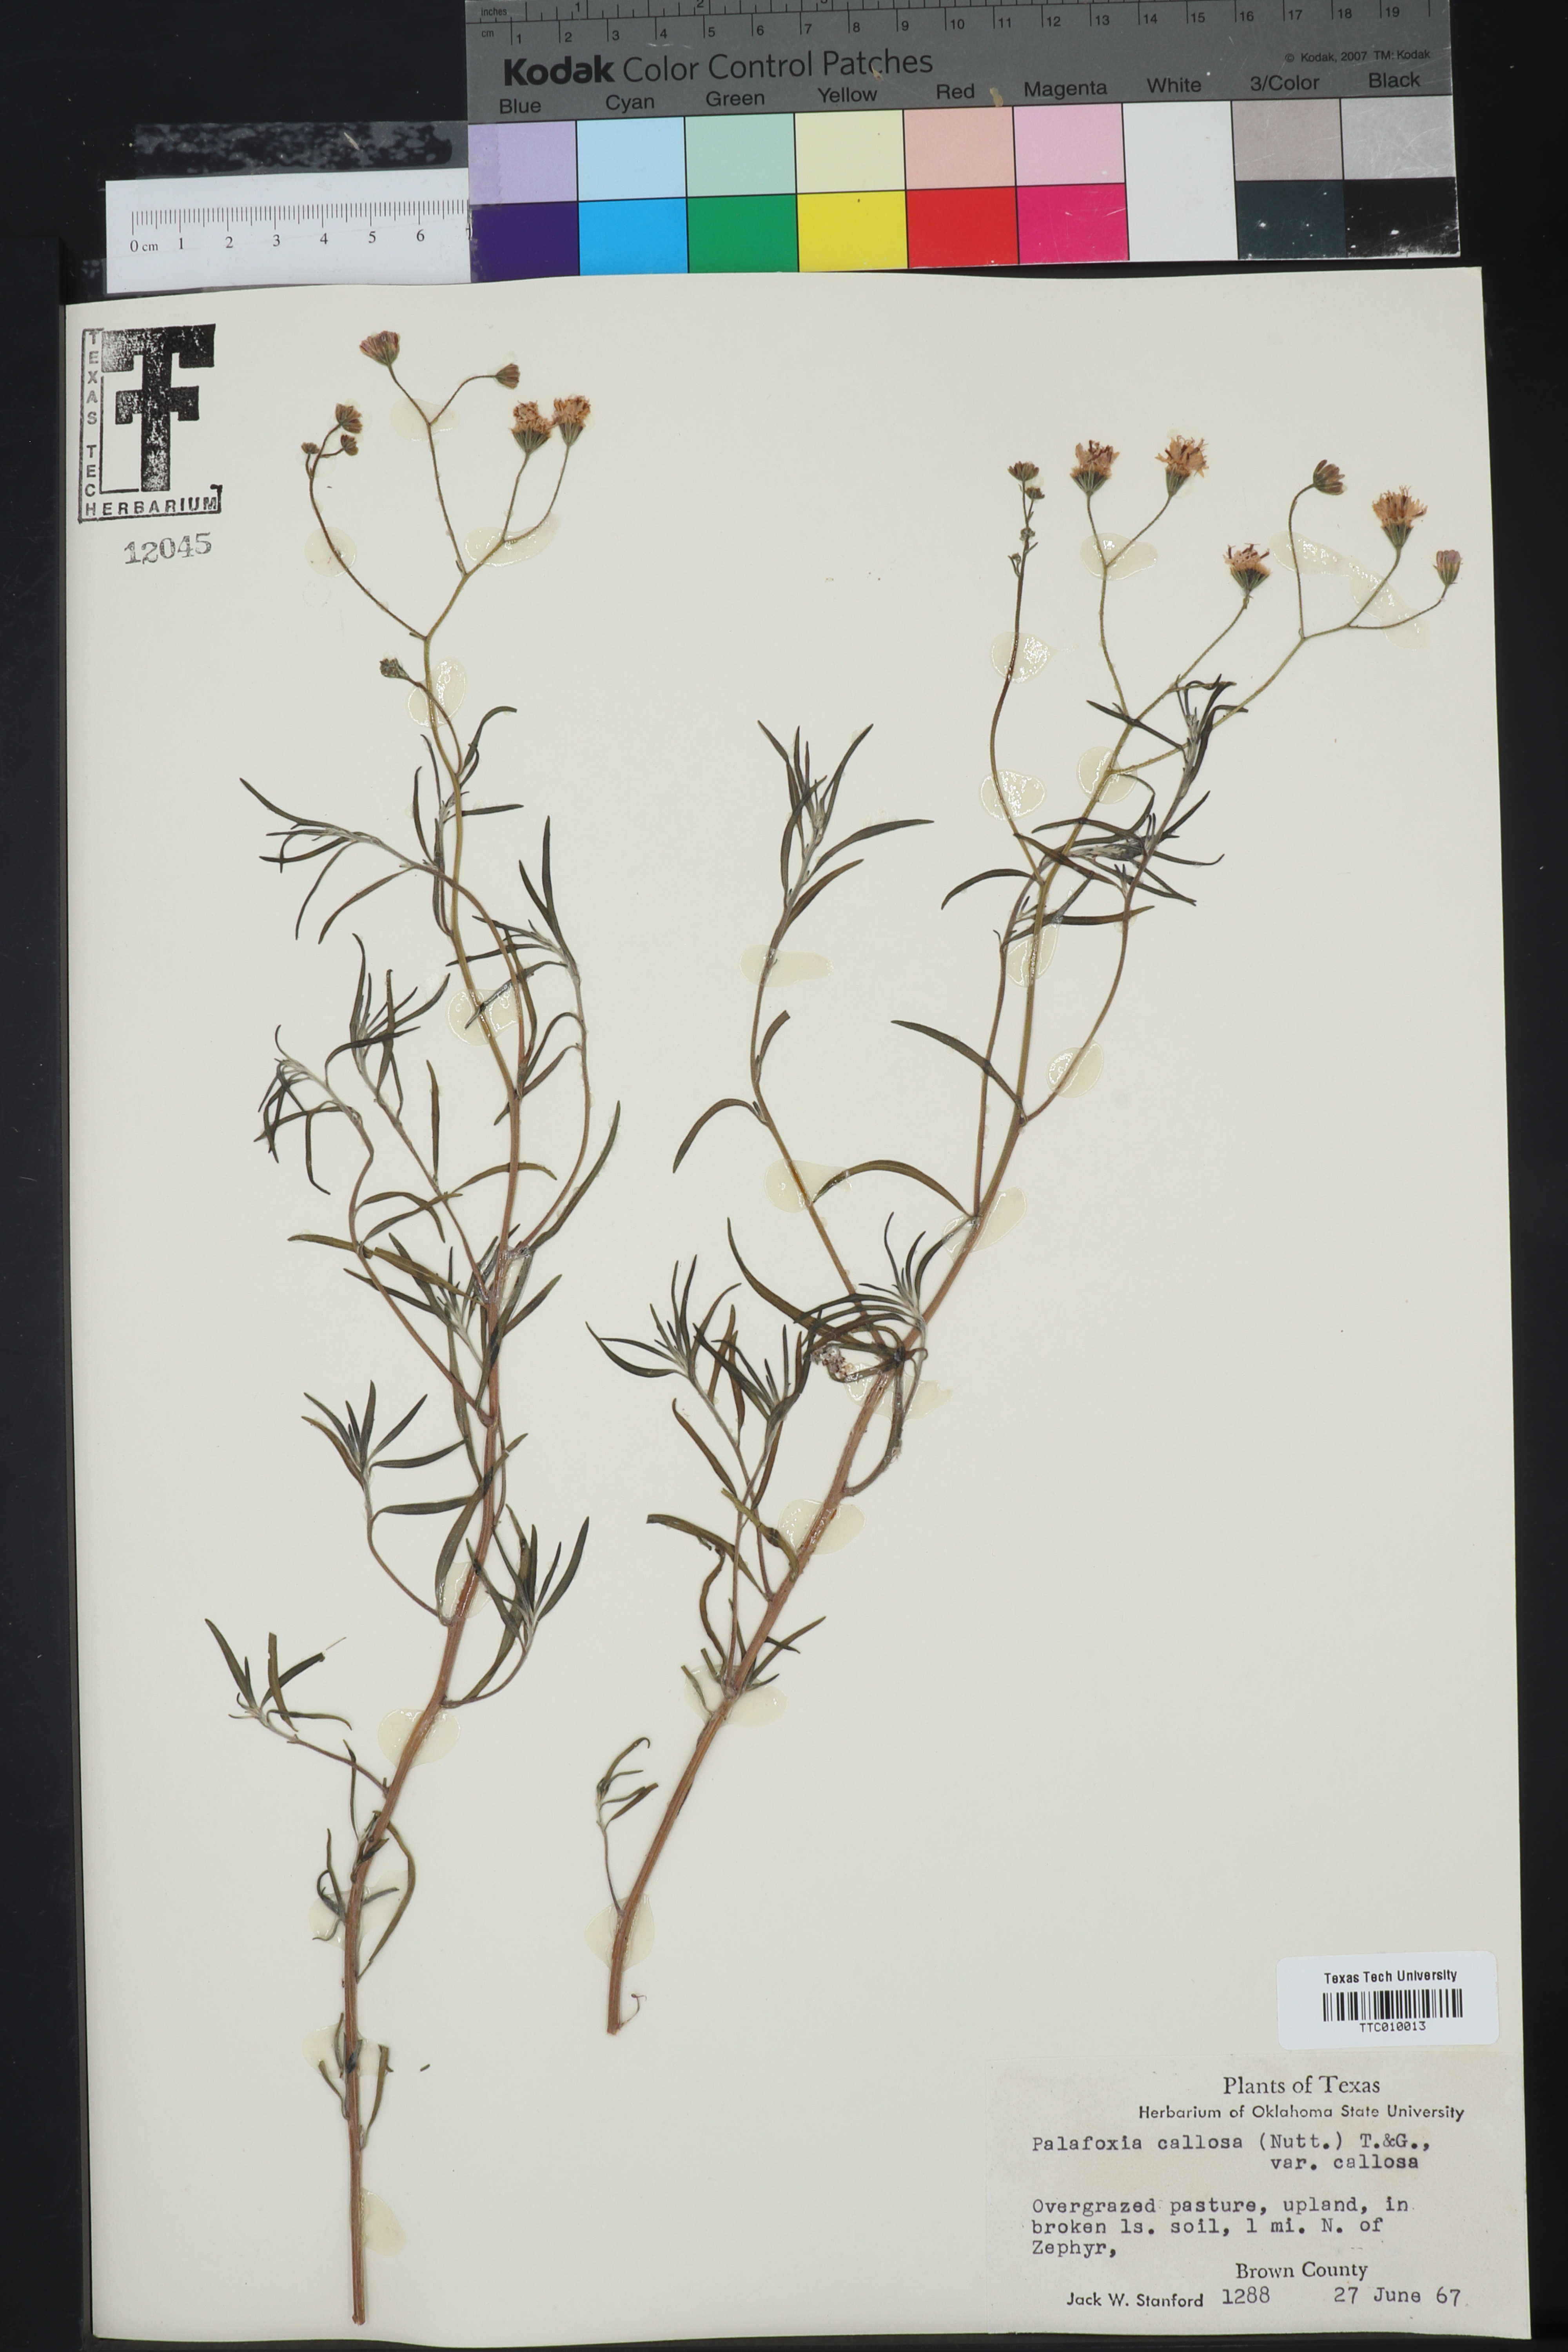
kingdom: Plantae
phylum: Tracheophyta
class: Magnoliopsida
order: Asterales
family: Asteraceae
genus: Palafoxia
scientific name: Palafoxia callosa
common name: Small palafox
